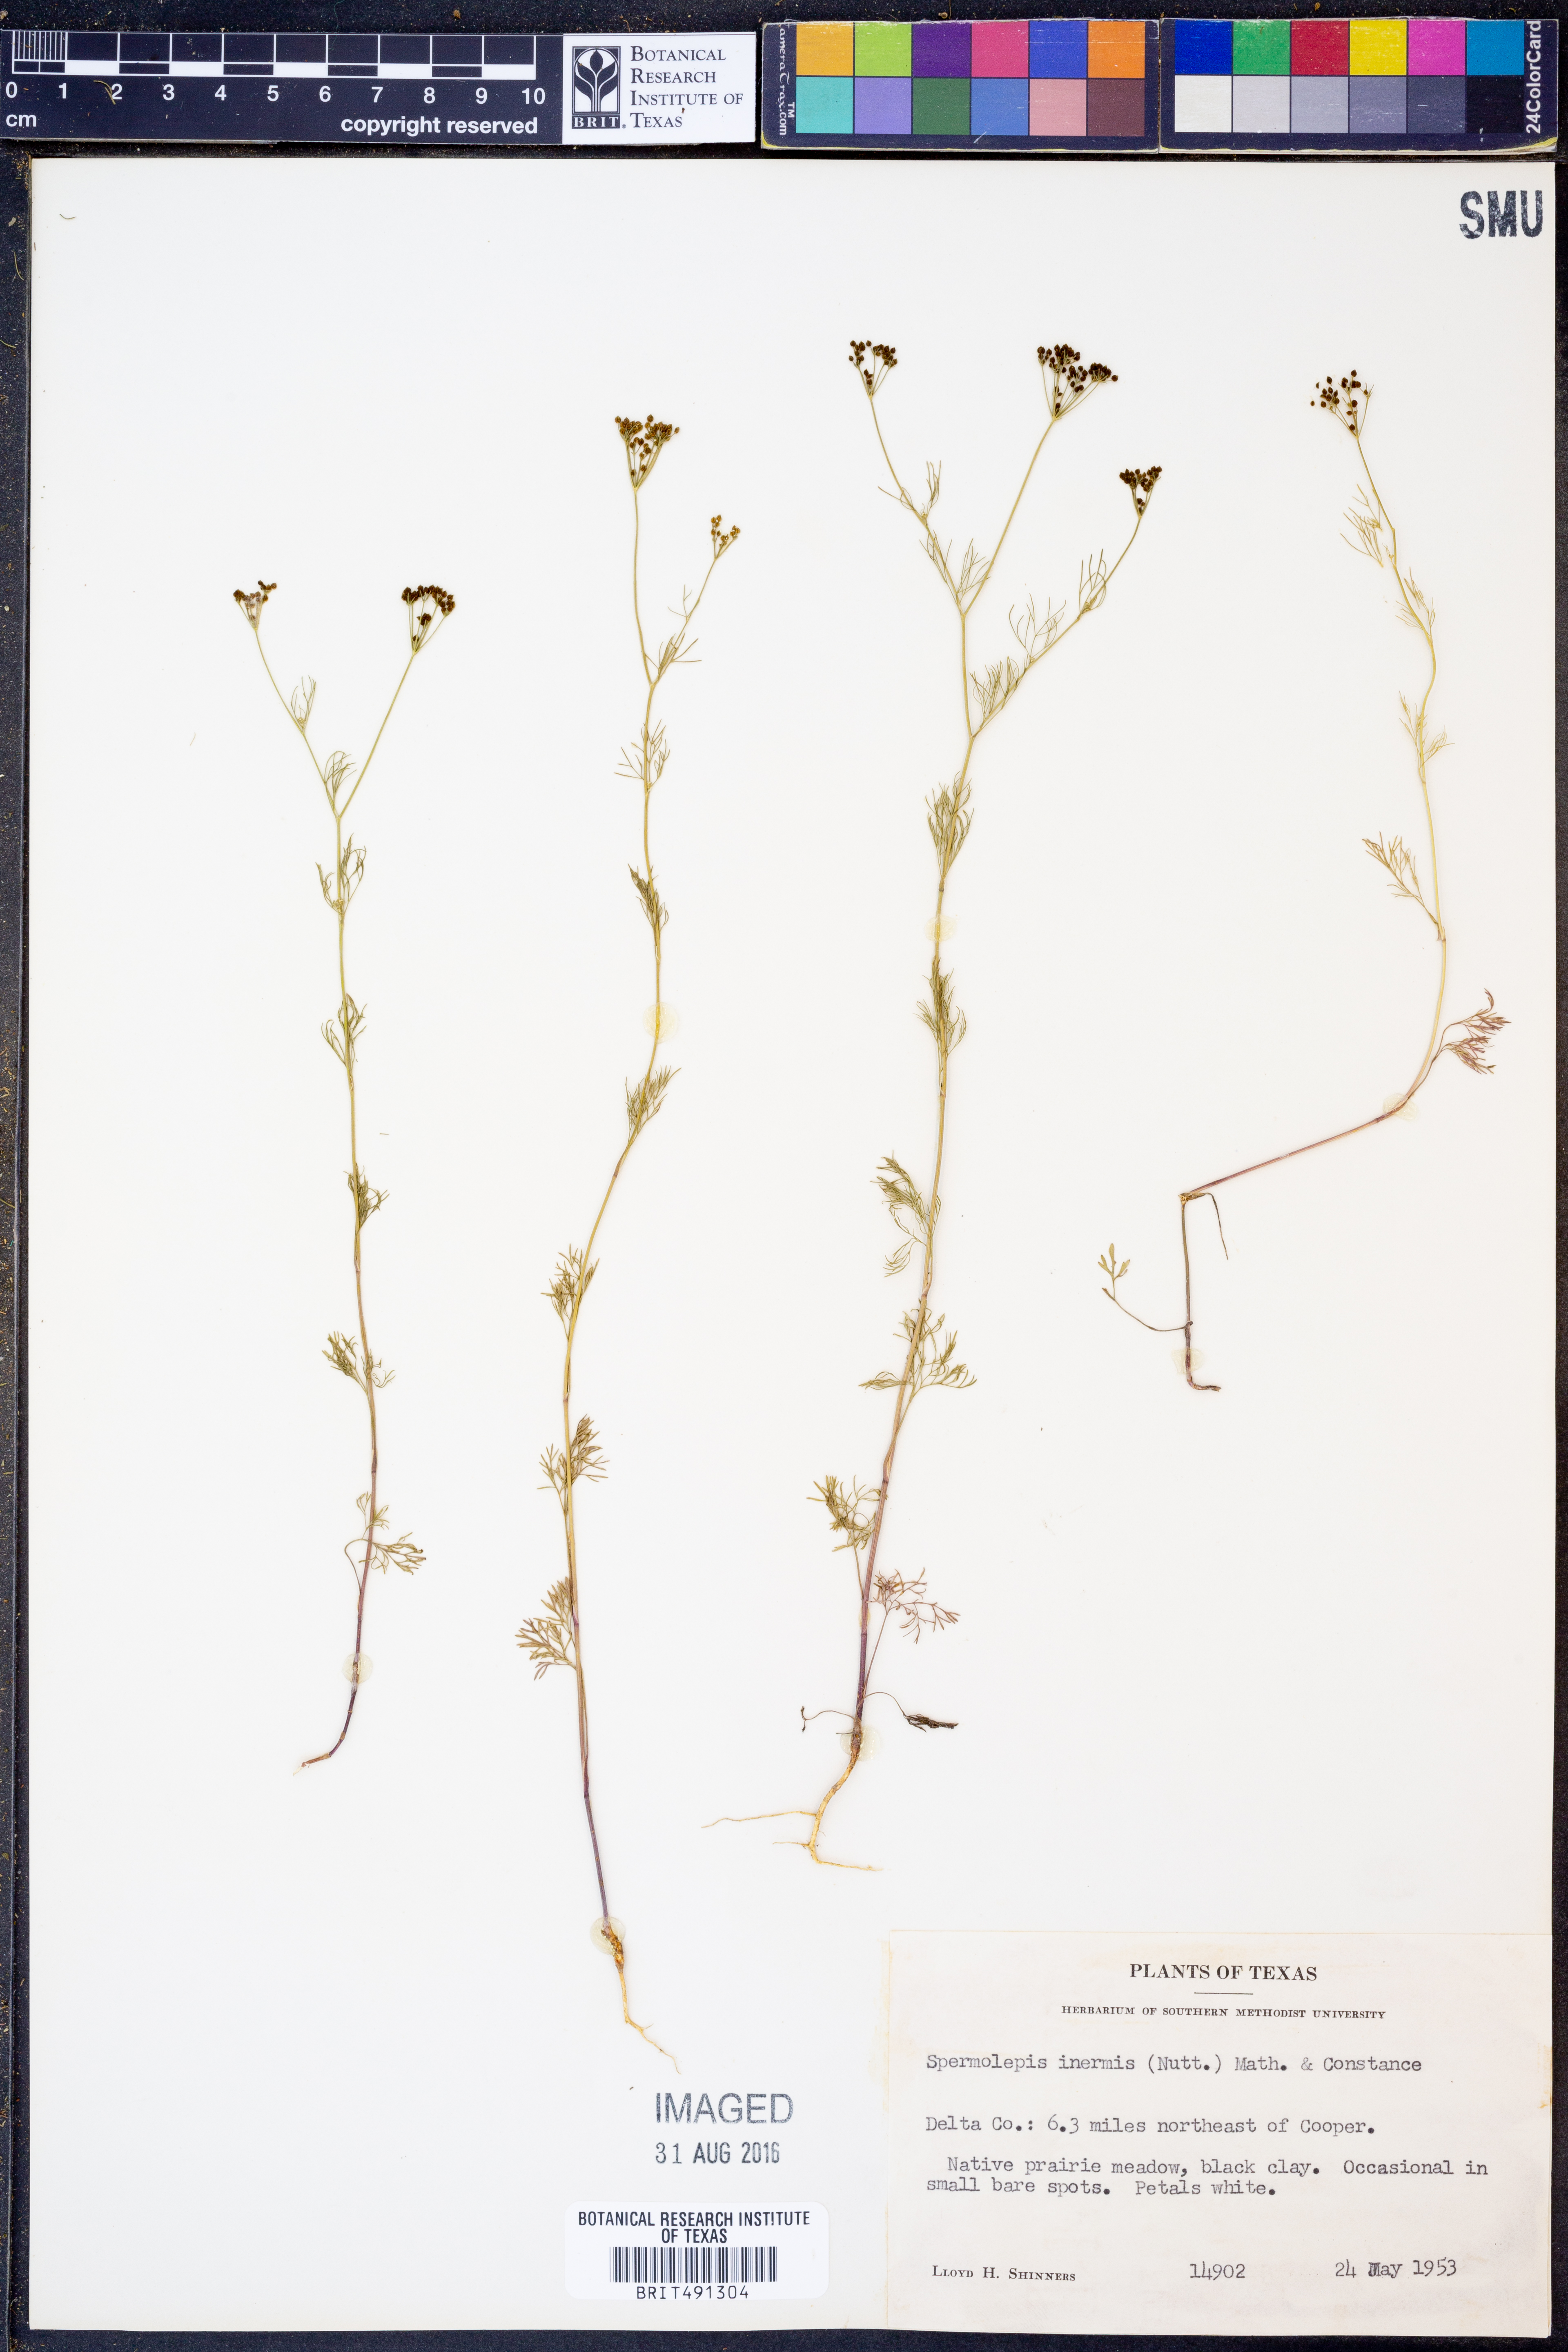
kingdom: Plantae
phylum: Tracheophyta
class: Magnoliopsida
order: Apiales
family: Apiaceae
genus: Spermolepis
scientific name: Spermolepis inermis
